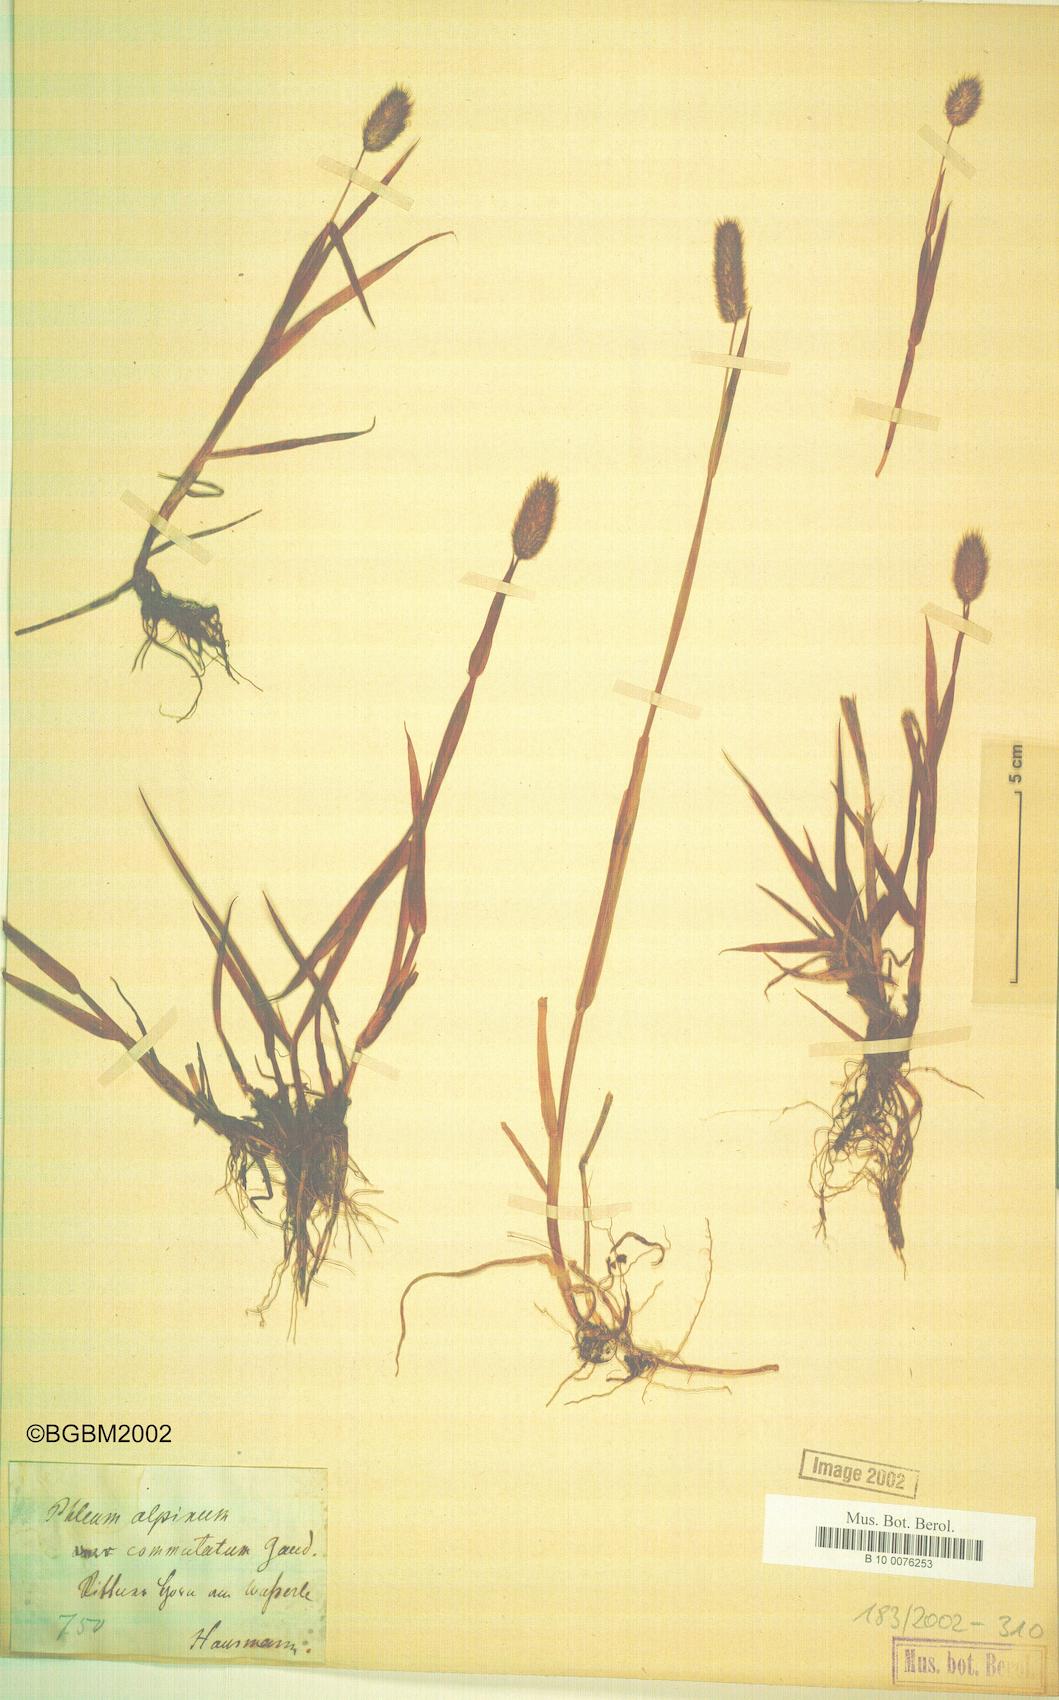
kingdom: Plantae
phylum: Tracheophyta
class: Liliopsida
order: Poales
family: Poaceae
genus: Phleum
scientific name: Phleum alpinum
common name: Alpine cat's-tail
